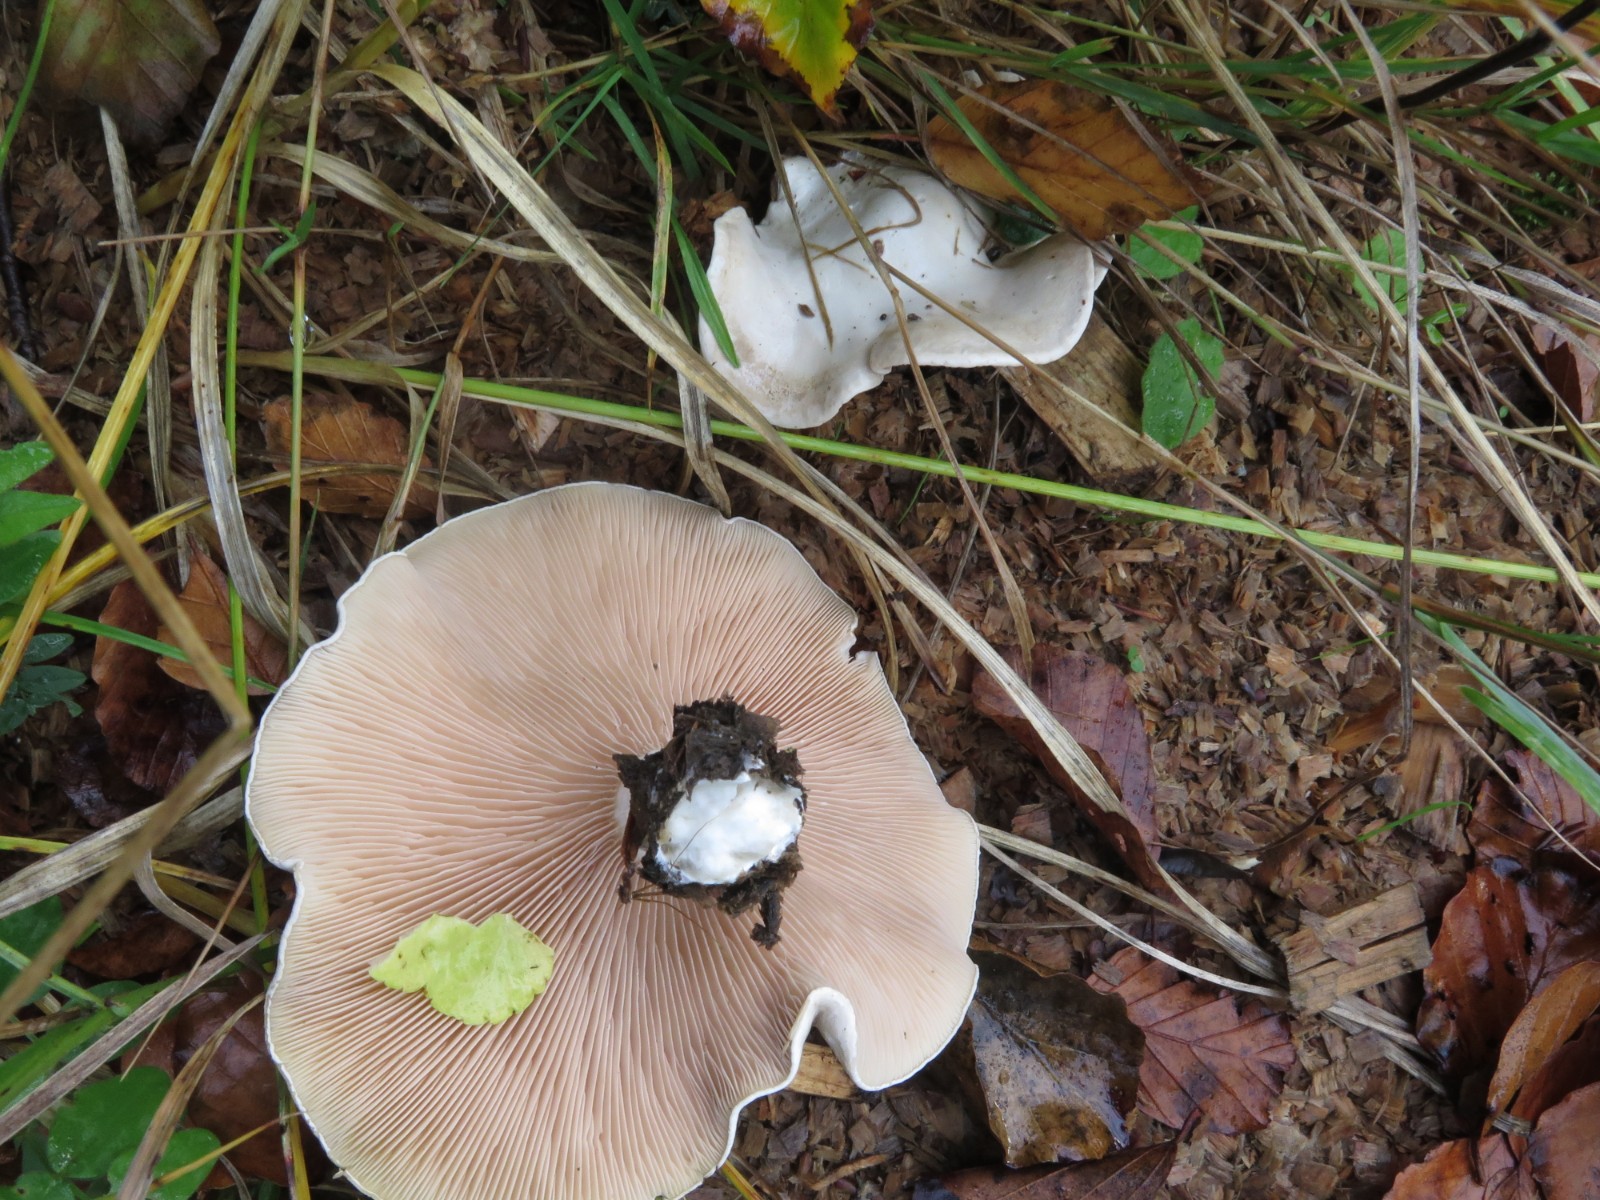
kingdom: Fungi
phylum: Basidiomycota
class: Agaricomycetes
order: Agaricales
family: Entolomataceae
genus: Clitopilus
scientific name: Clitopilus prunulus
